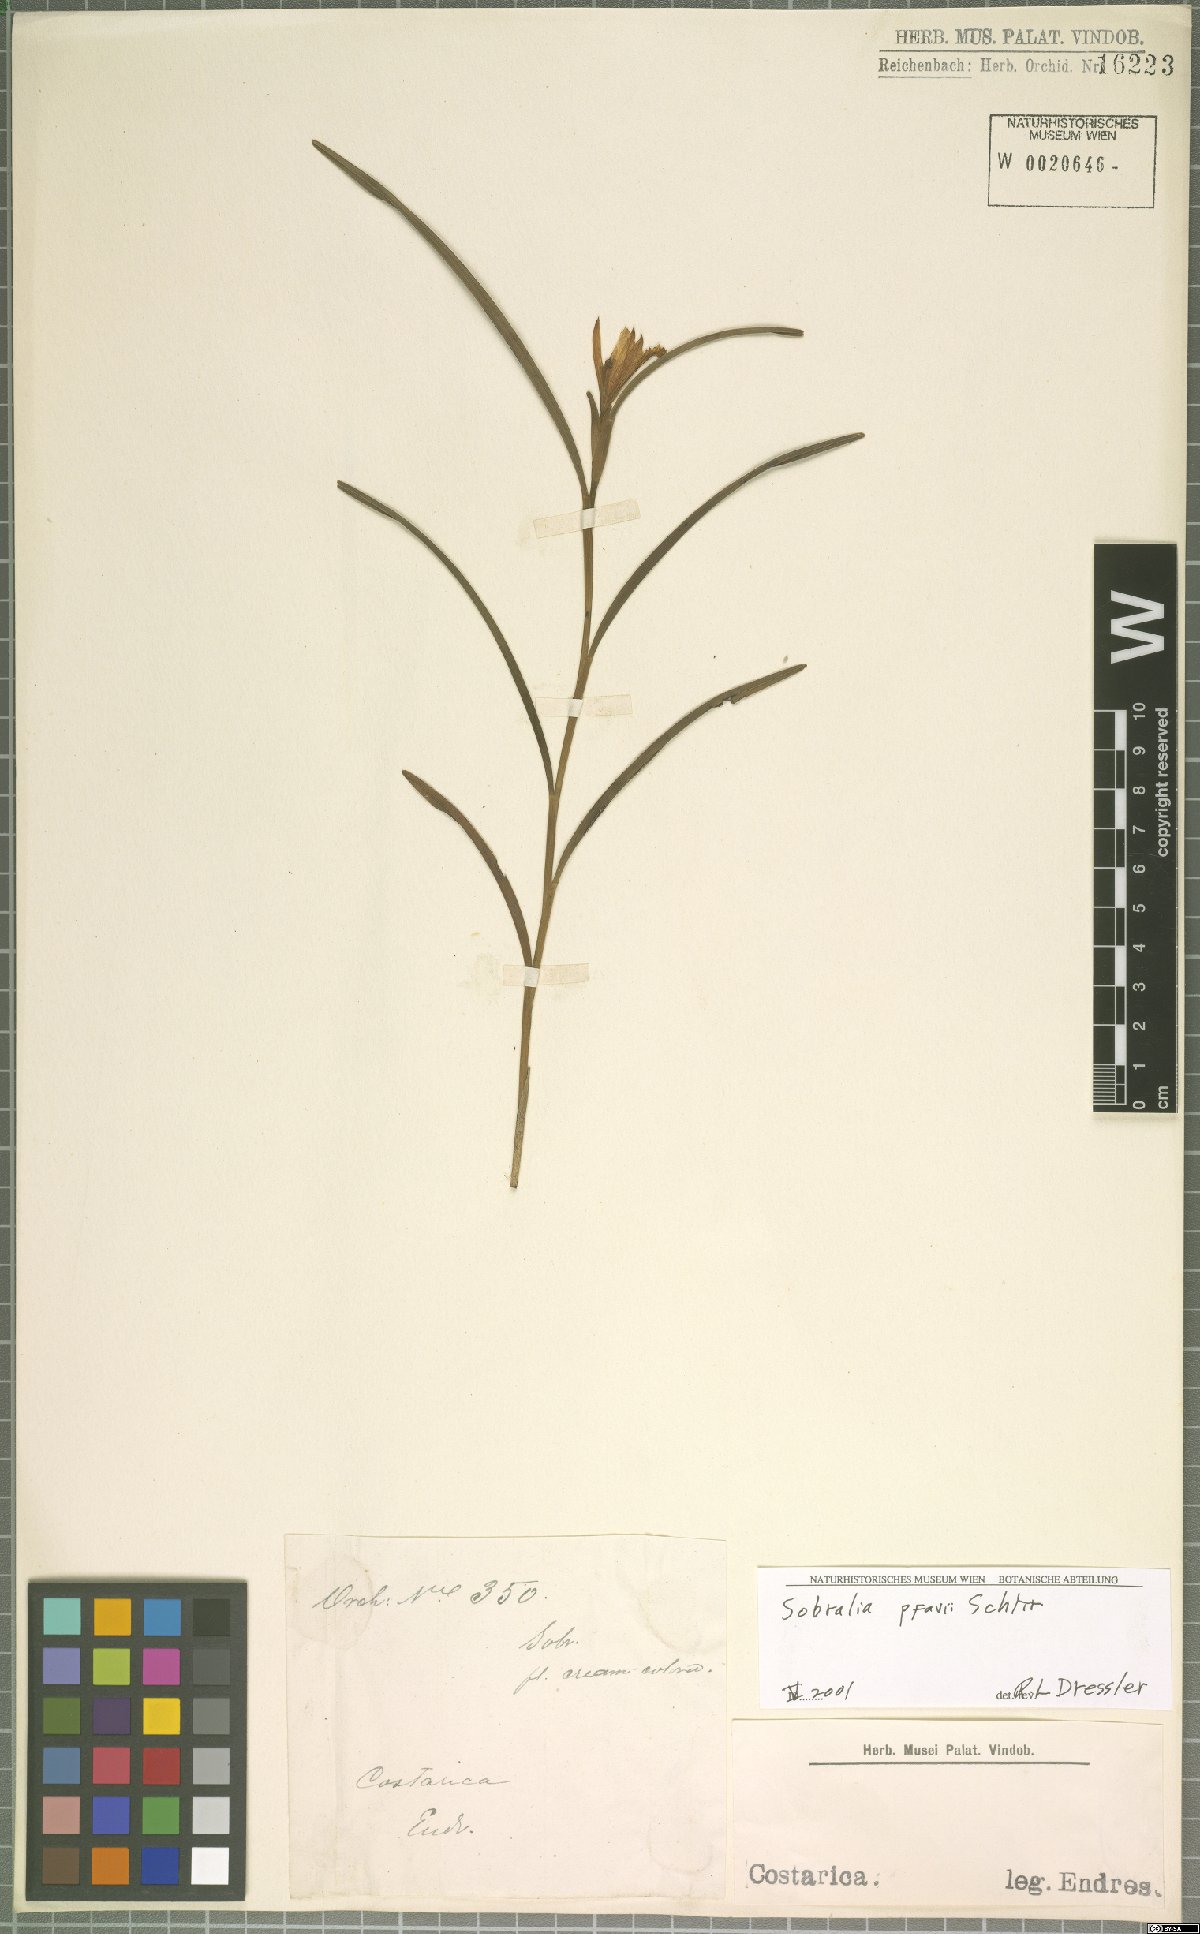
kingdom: Plantae
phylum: Tracheophyta
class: Liliopsida
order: Asparagales
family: Orchidaceae
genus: Sobralia
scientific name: Sobralia pfavii
